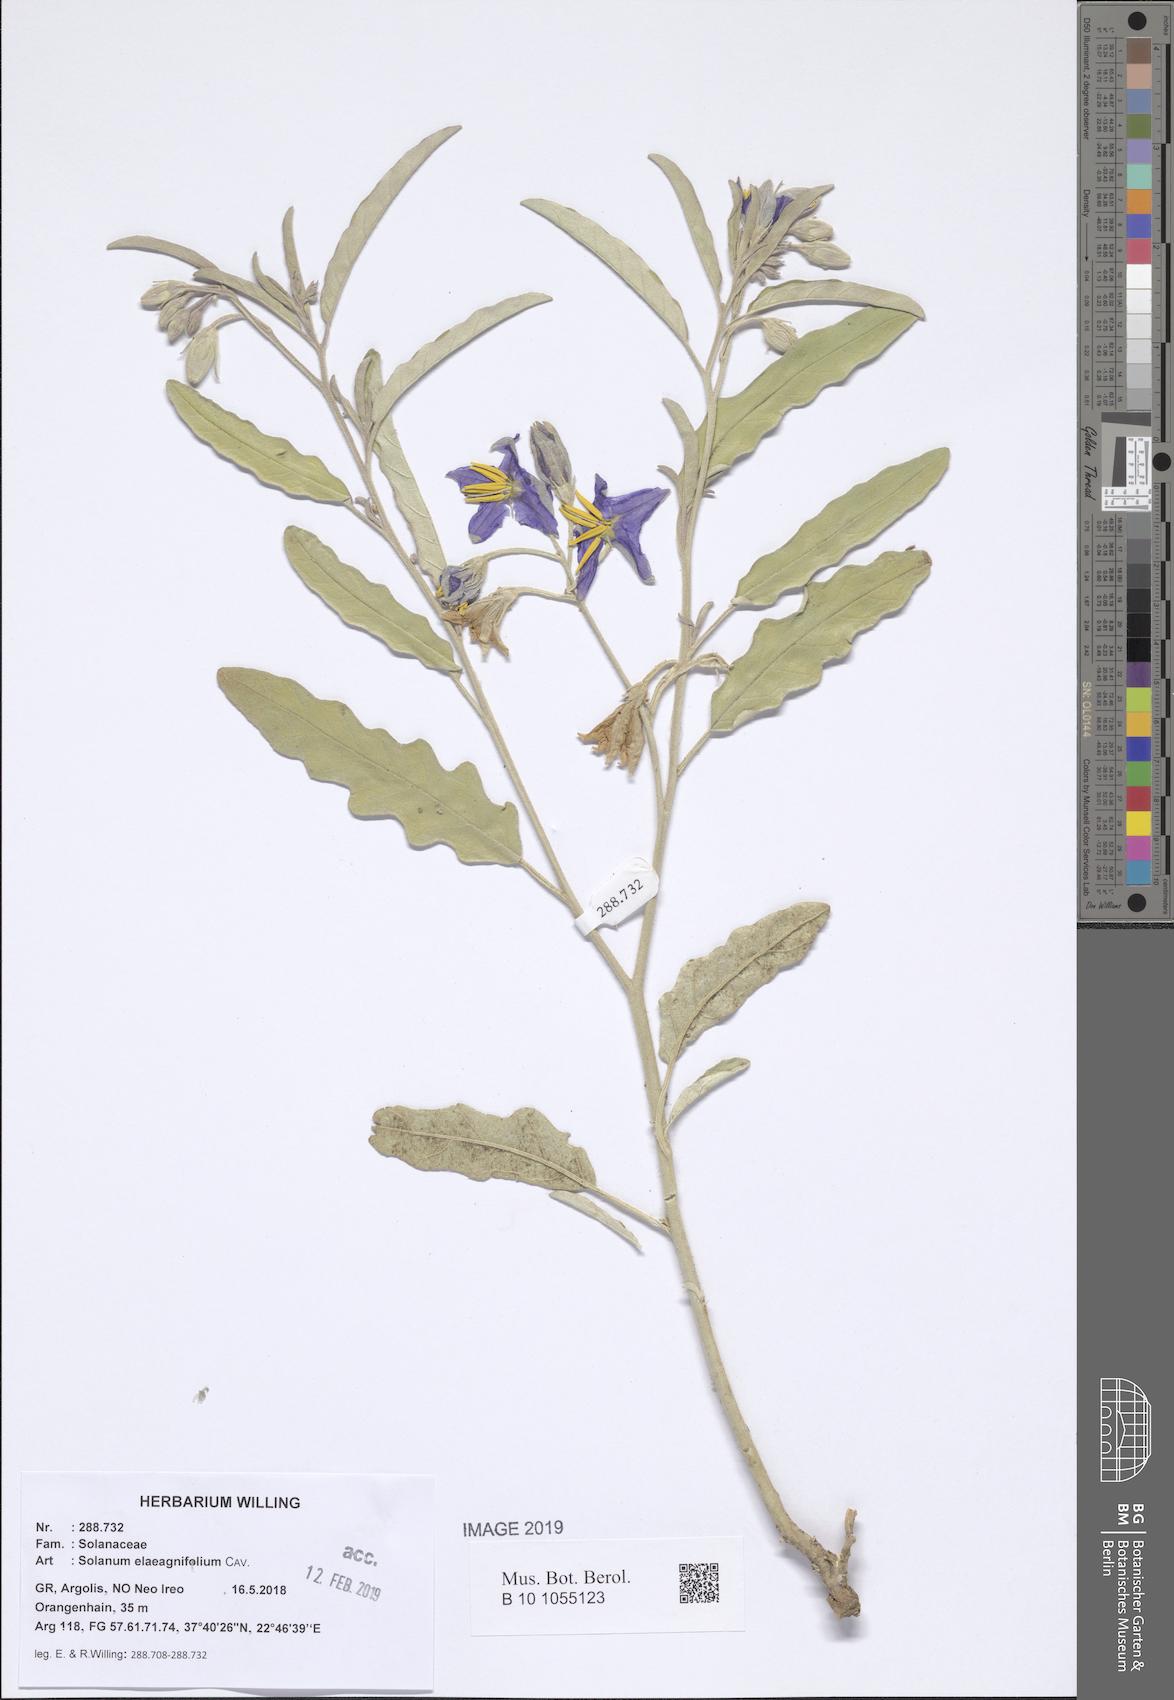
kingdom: Plantae
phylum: Tracheophyta
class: Magnoliopsida
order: Solanales
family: Solanaceae
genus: Solanum
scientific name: Solanum elaeagnifolium
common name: Silverleaf nightshade
